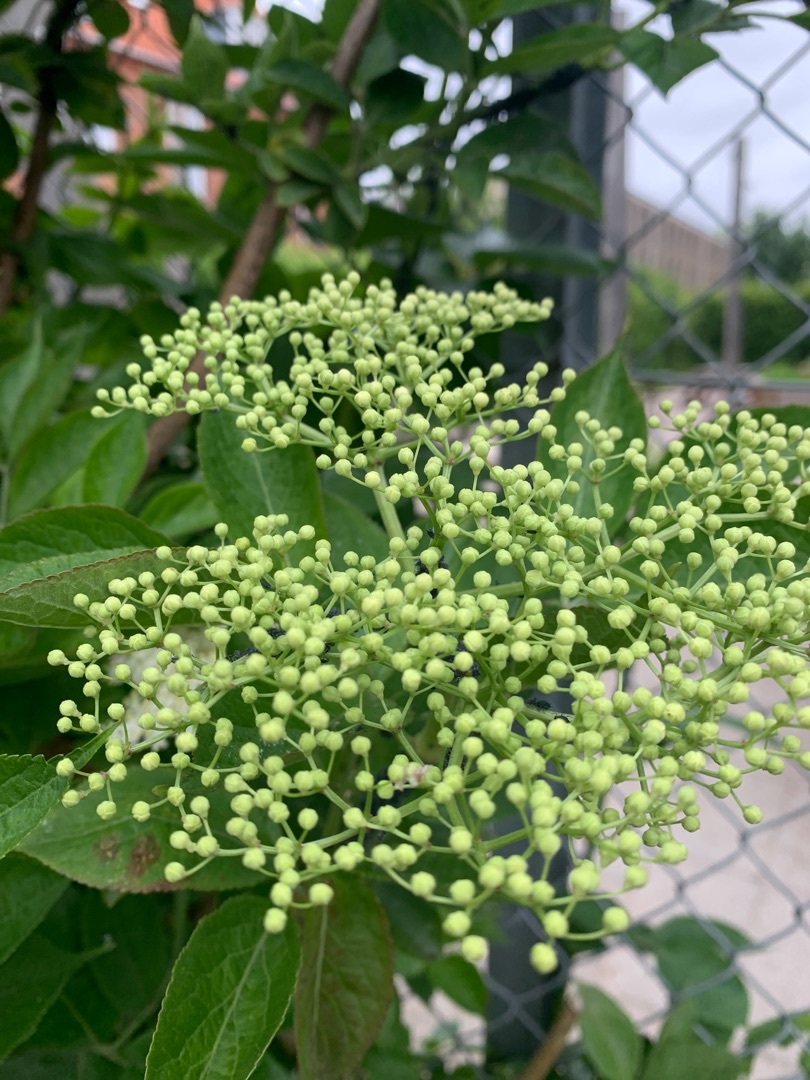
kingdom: Plantae
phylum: Tracheophyta
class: Magnoliopsida
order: Dipsacales
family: Viburnaceae
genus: Sambucus
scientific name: Sambucus nigra
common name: Almindelig hyld
